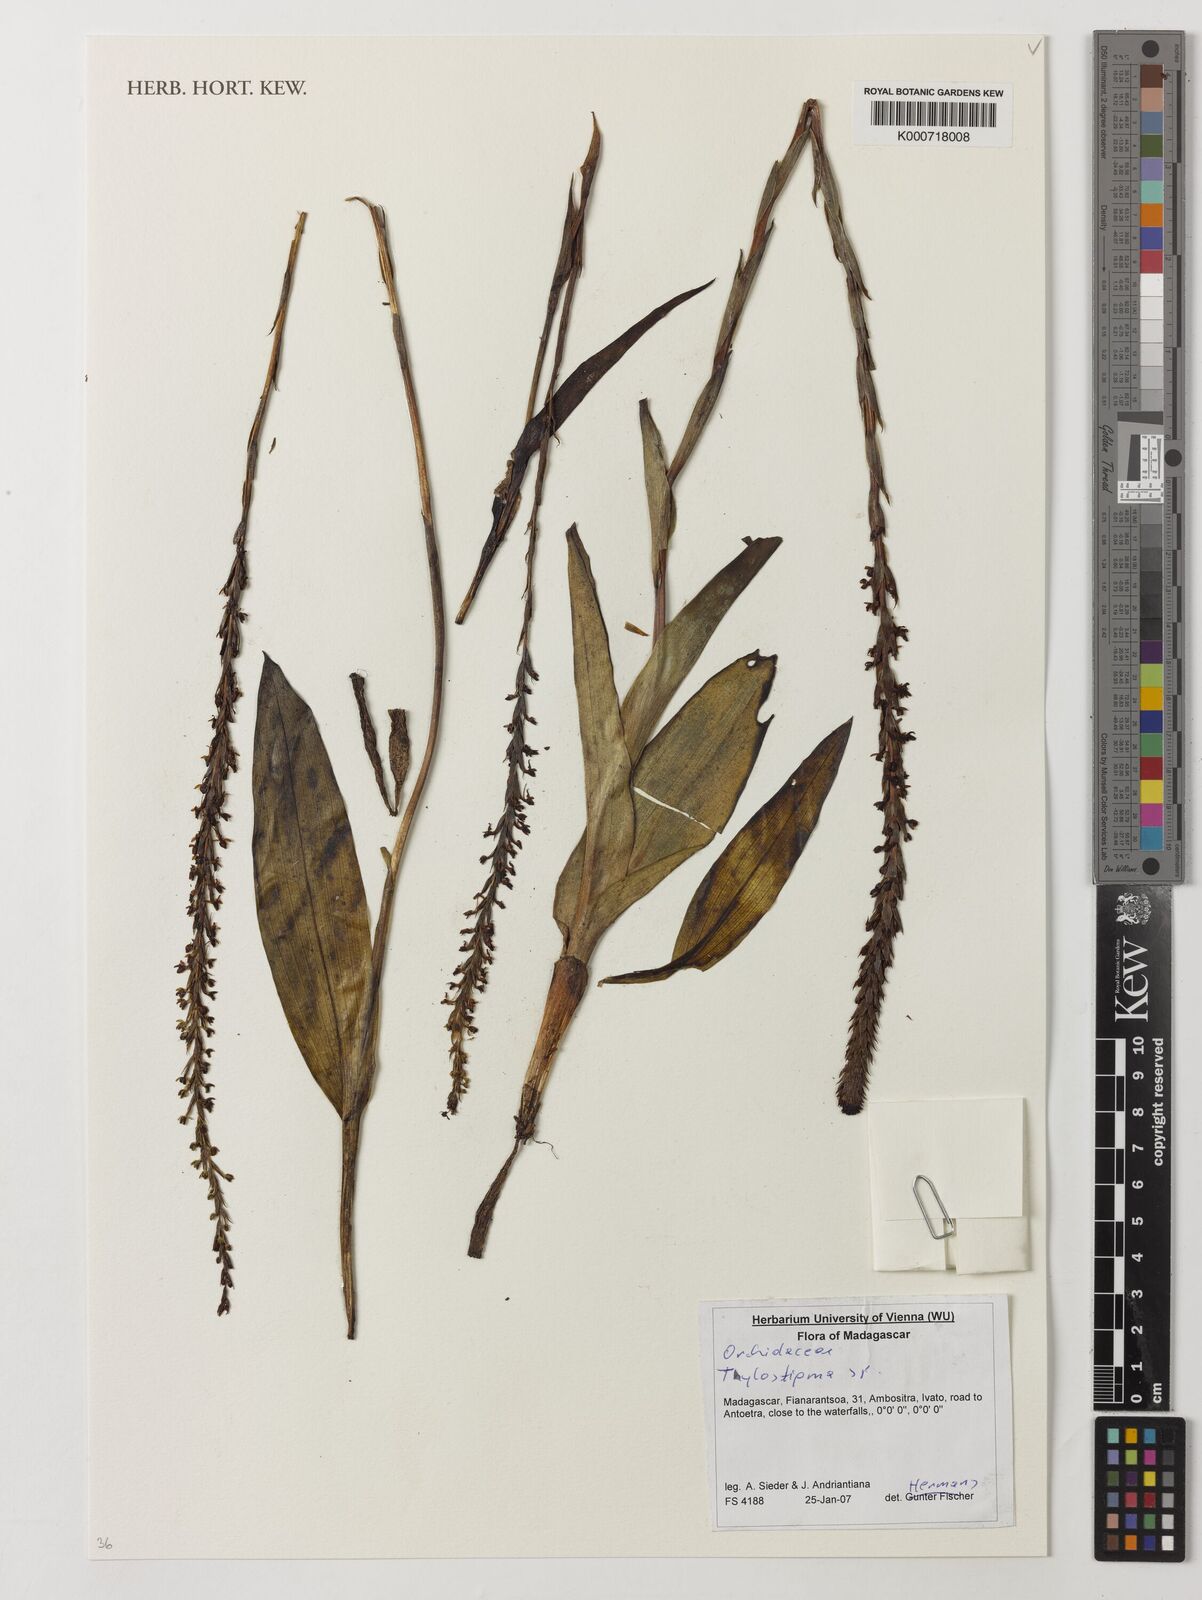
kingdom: Plantae
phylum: Tracheophyta
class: Liliopsida
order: Asparagales
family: Orchidaceae
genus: Tylostigma
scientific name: Tylostigma
